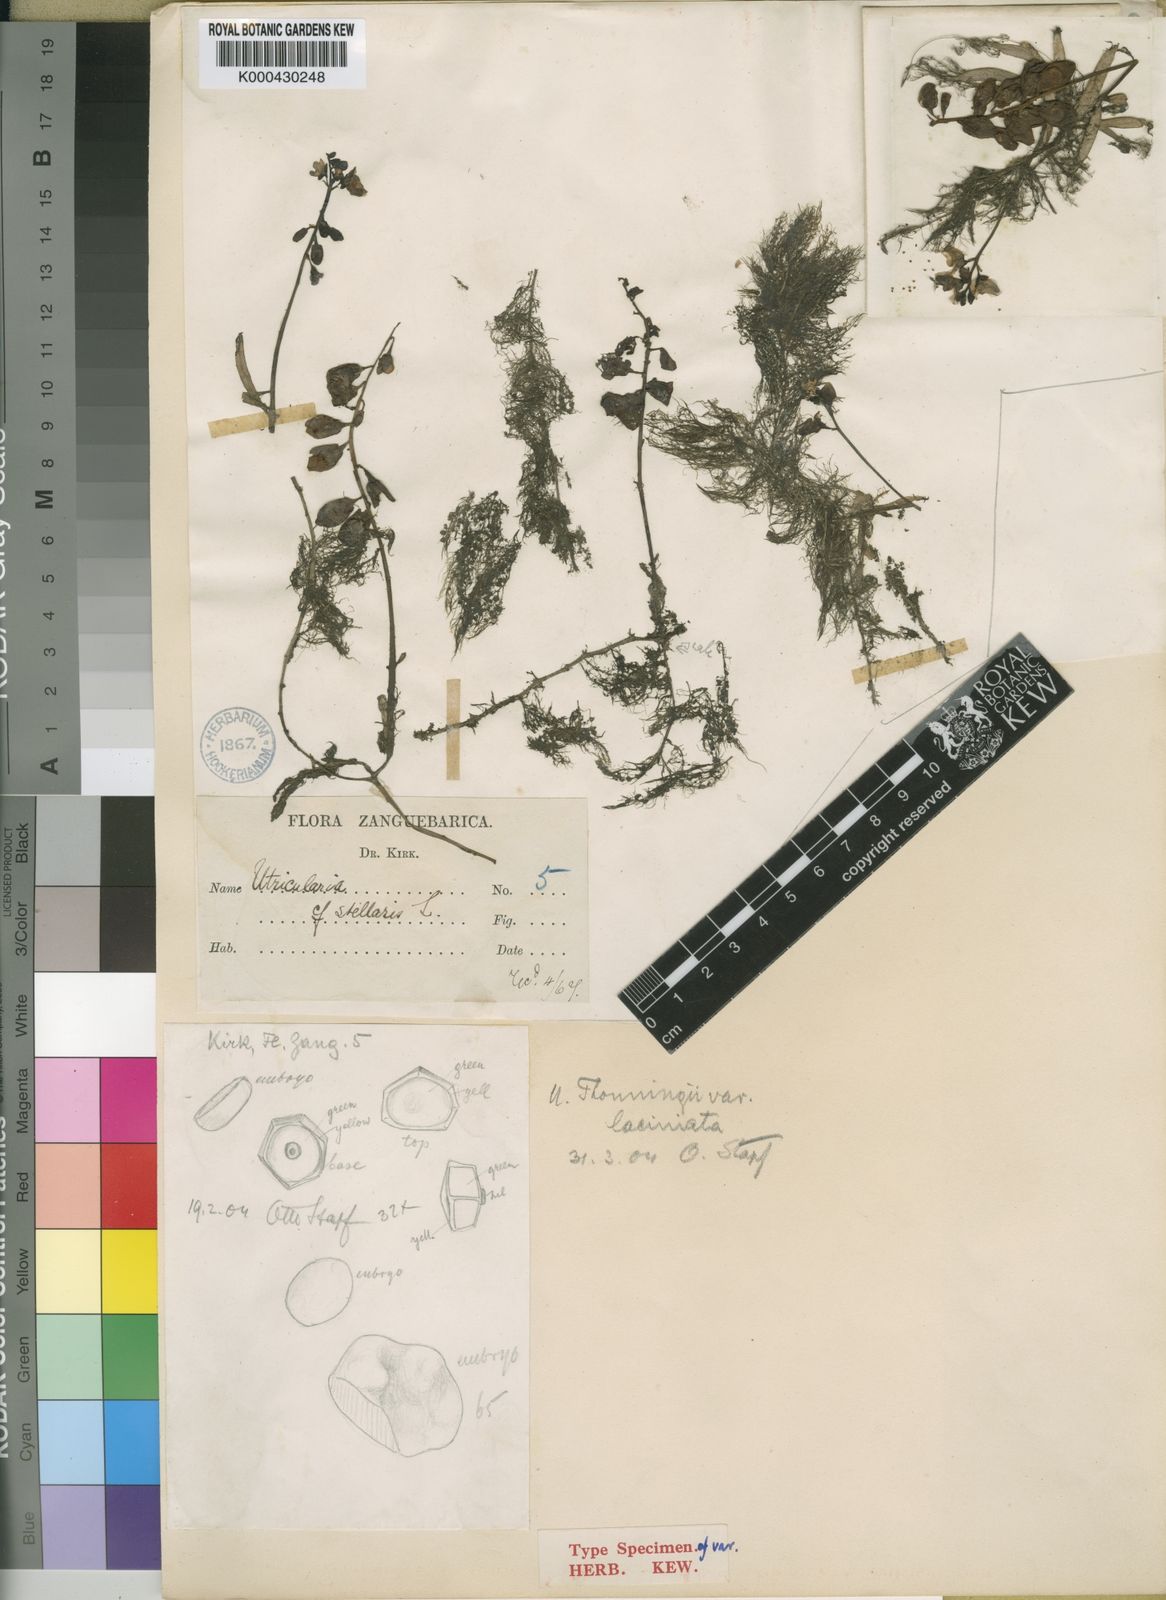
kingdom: Plantae
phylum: Tracheophyta
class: Magnoliopsida
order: Lamiales
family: Lentibulariaceae
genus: Utricularia
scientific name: Utricularia inflexa
